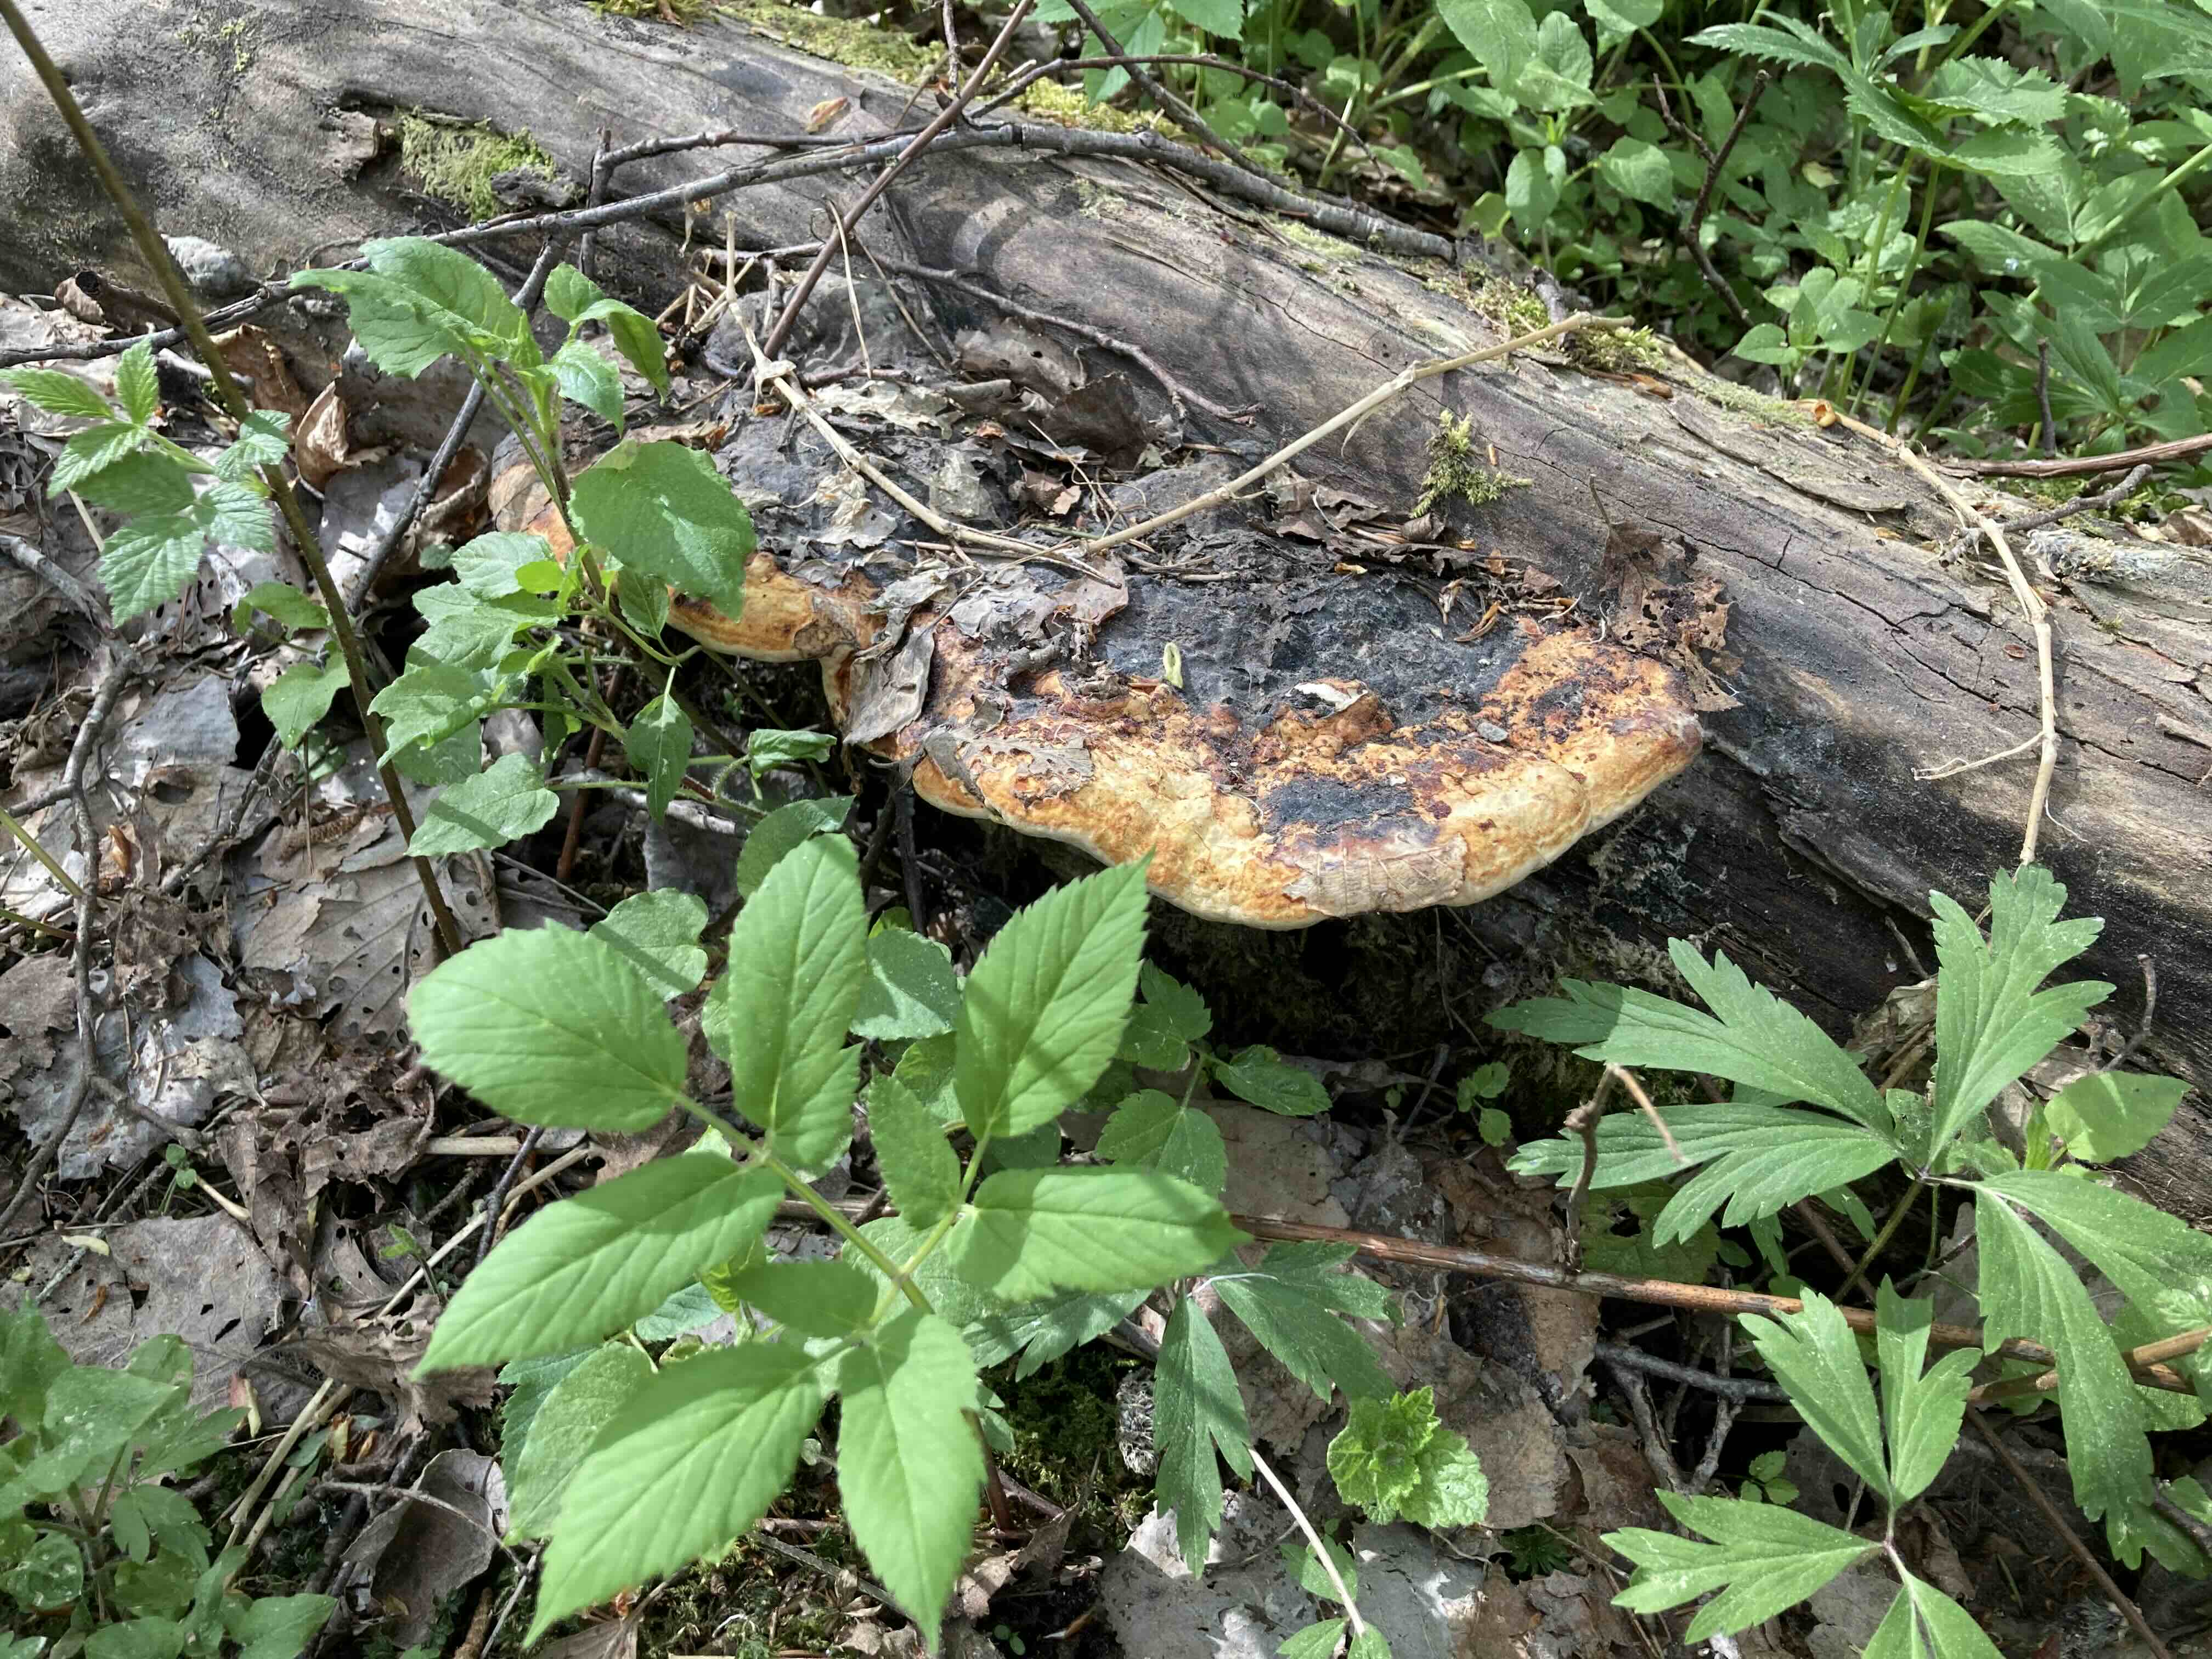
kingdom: Fungi
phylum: Basidiomycota
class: Agaricomycetes
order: Polyporales
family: Fomitopsidaceae
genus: Fomitopsis
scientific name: Fomitopsis pinicola
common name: randbæltet hovporesvamp
